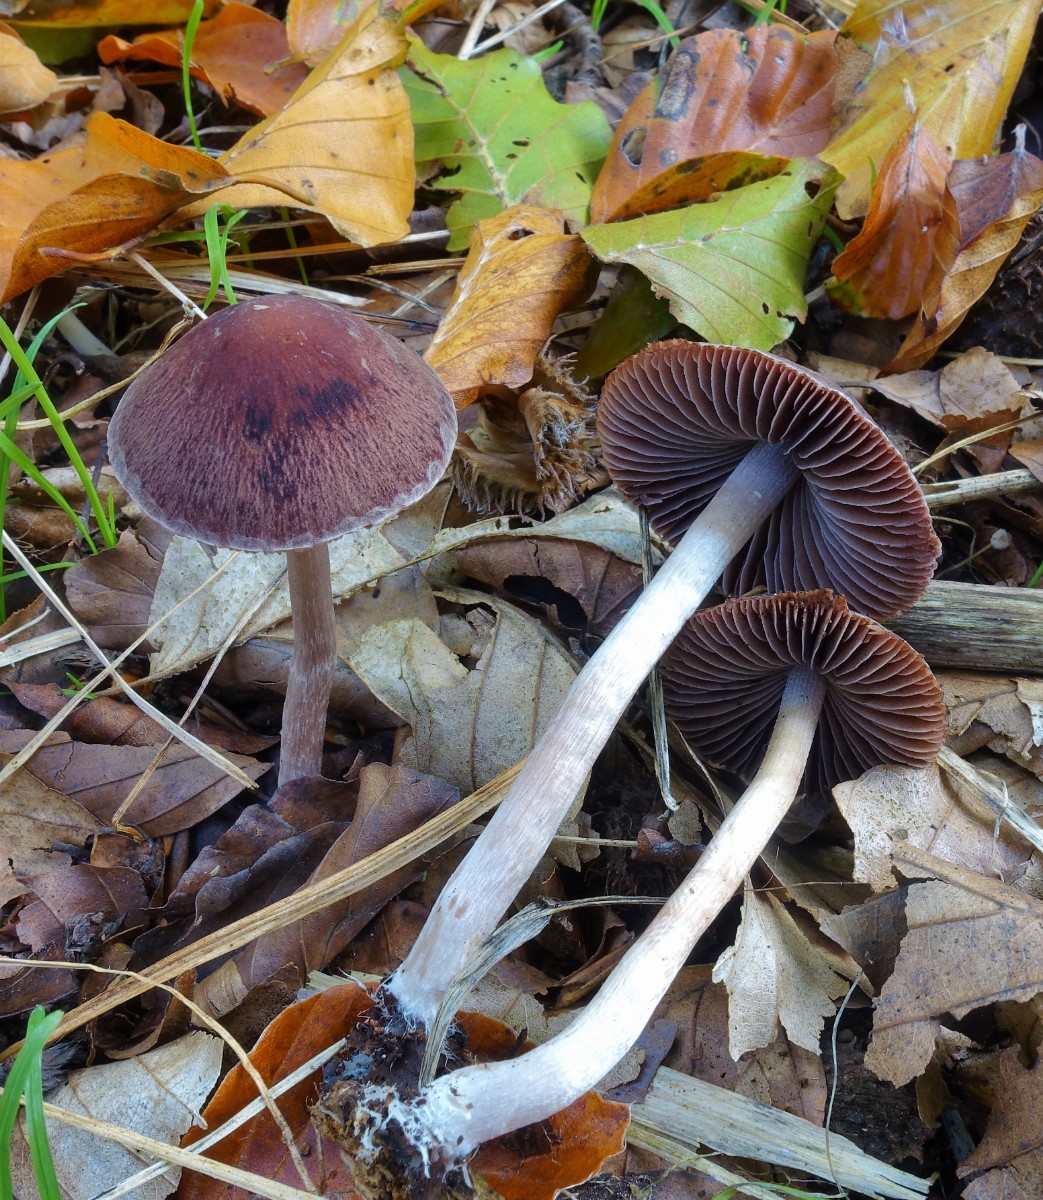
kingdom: Fungi
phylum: Basidiomycota
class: Agaricomycetes
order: Agaricales
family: Psathyrellaceae
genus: Psathyrella
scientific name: Psathyrella bipellis
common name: vinrød mørkhat
